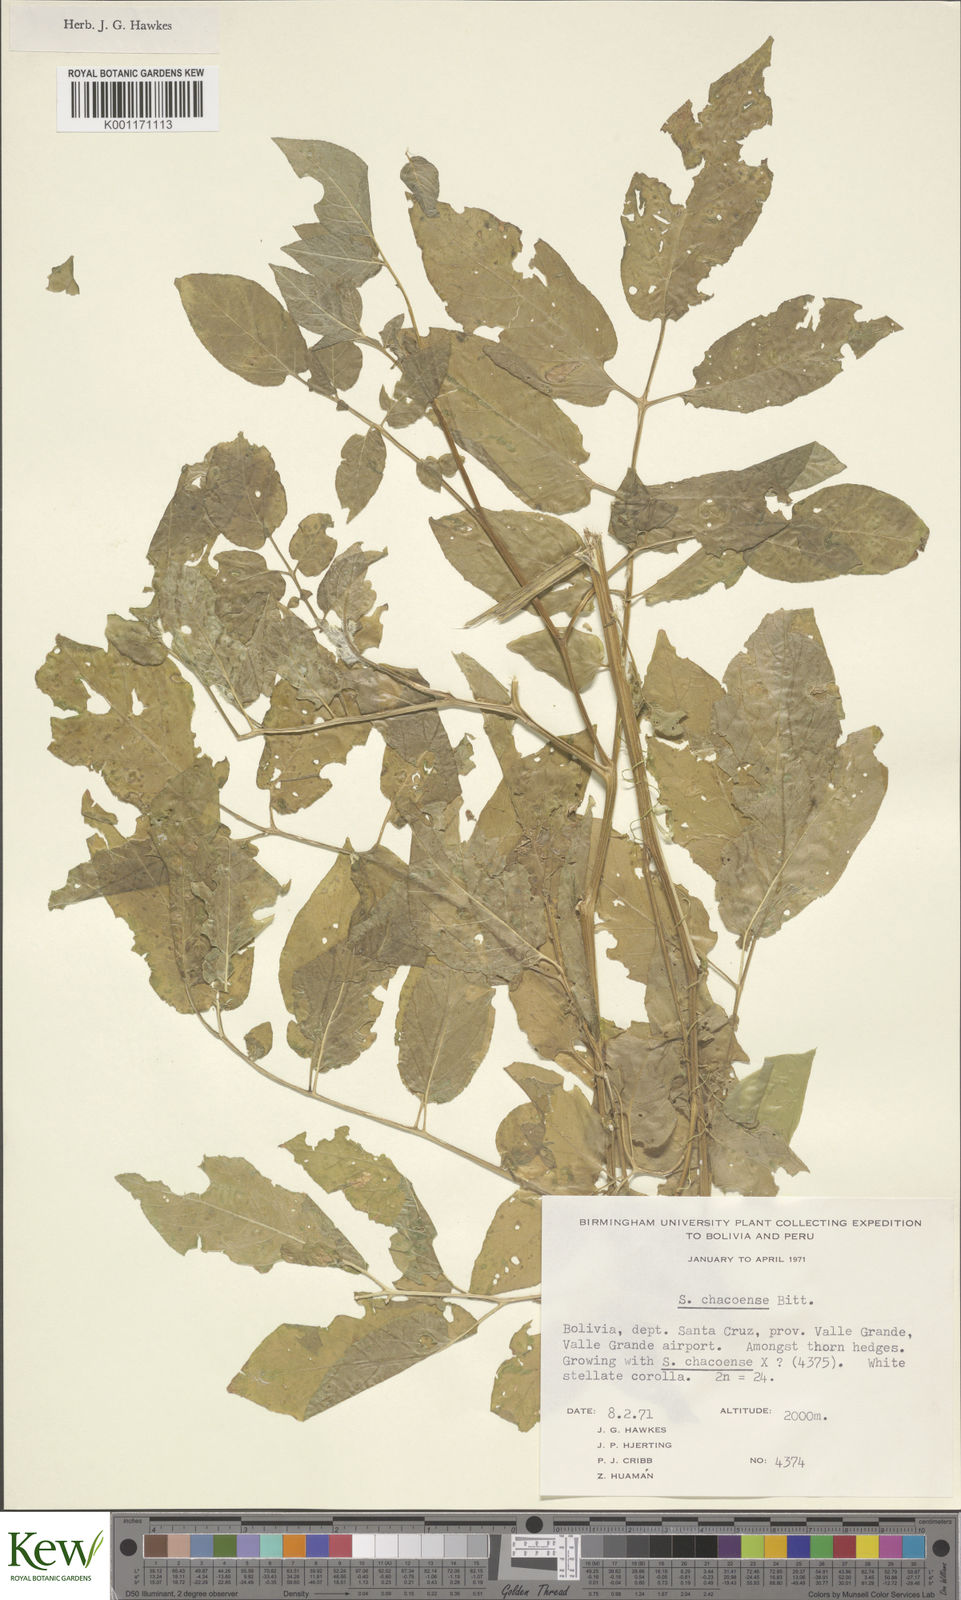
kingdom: Plantae
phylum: Tracheophyta
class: Magnoliopsida
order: Solanales
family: Solanaceae
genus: Solanum
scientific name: Solanum chacoense
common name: Chaco potato
